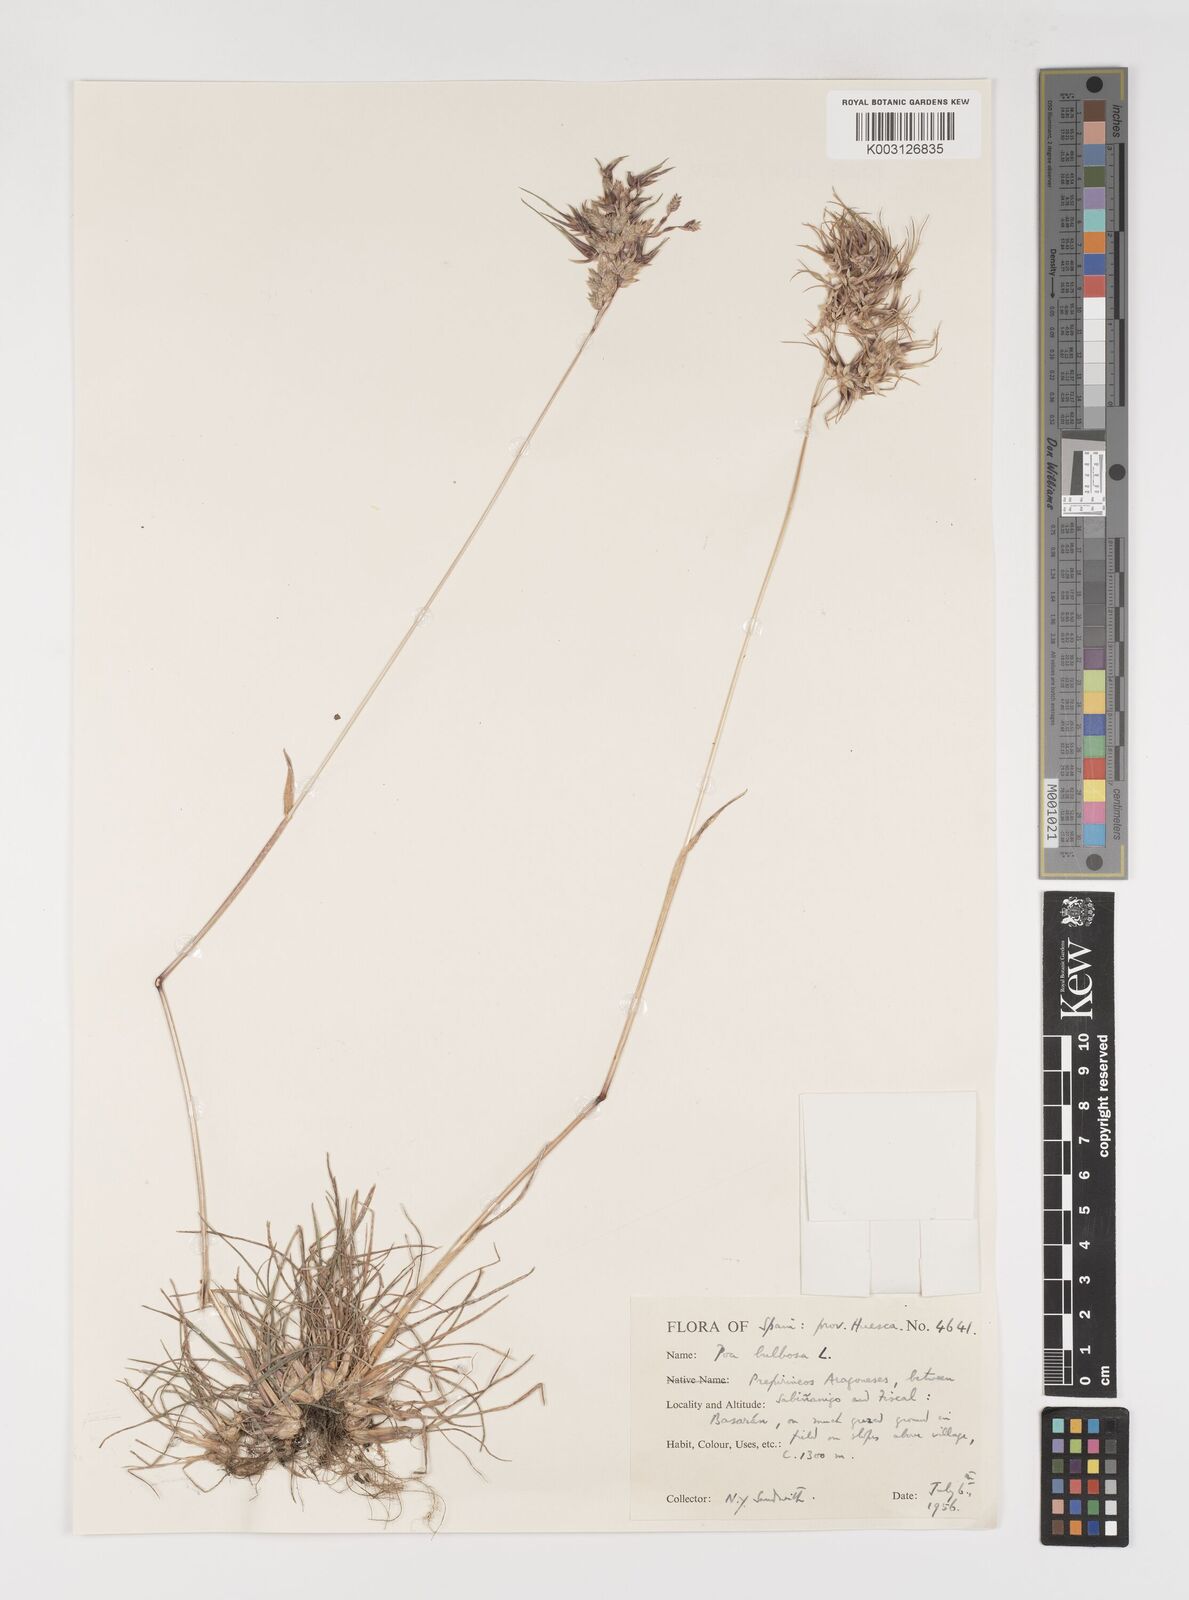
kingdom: Plantae
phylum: Tracheophyta
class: Liliopsida
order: Poales
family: Poaceae
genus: Poa
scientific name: Poa bulbosa
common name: Bulbous bluegrass
